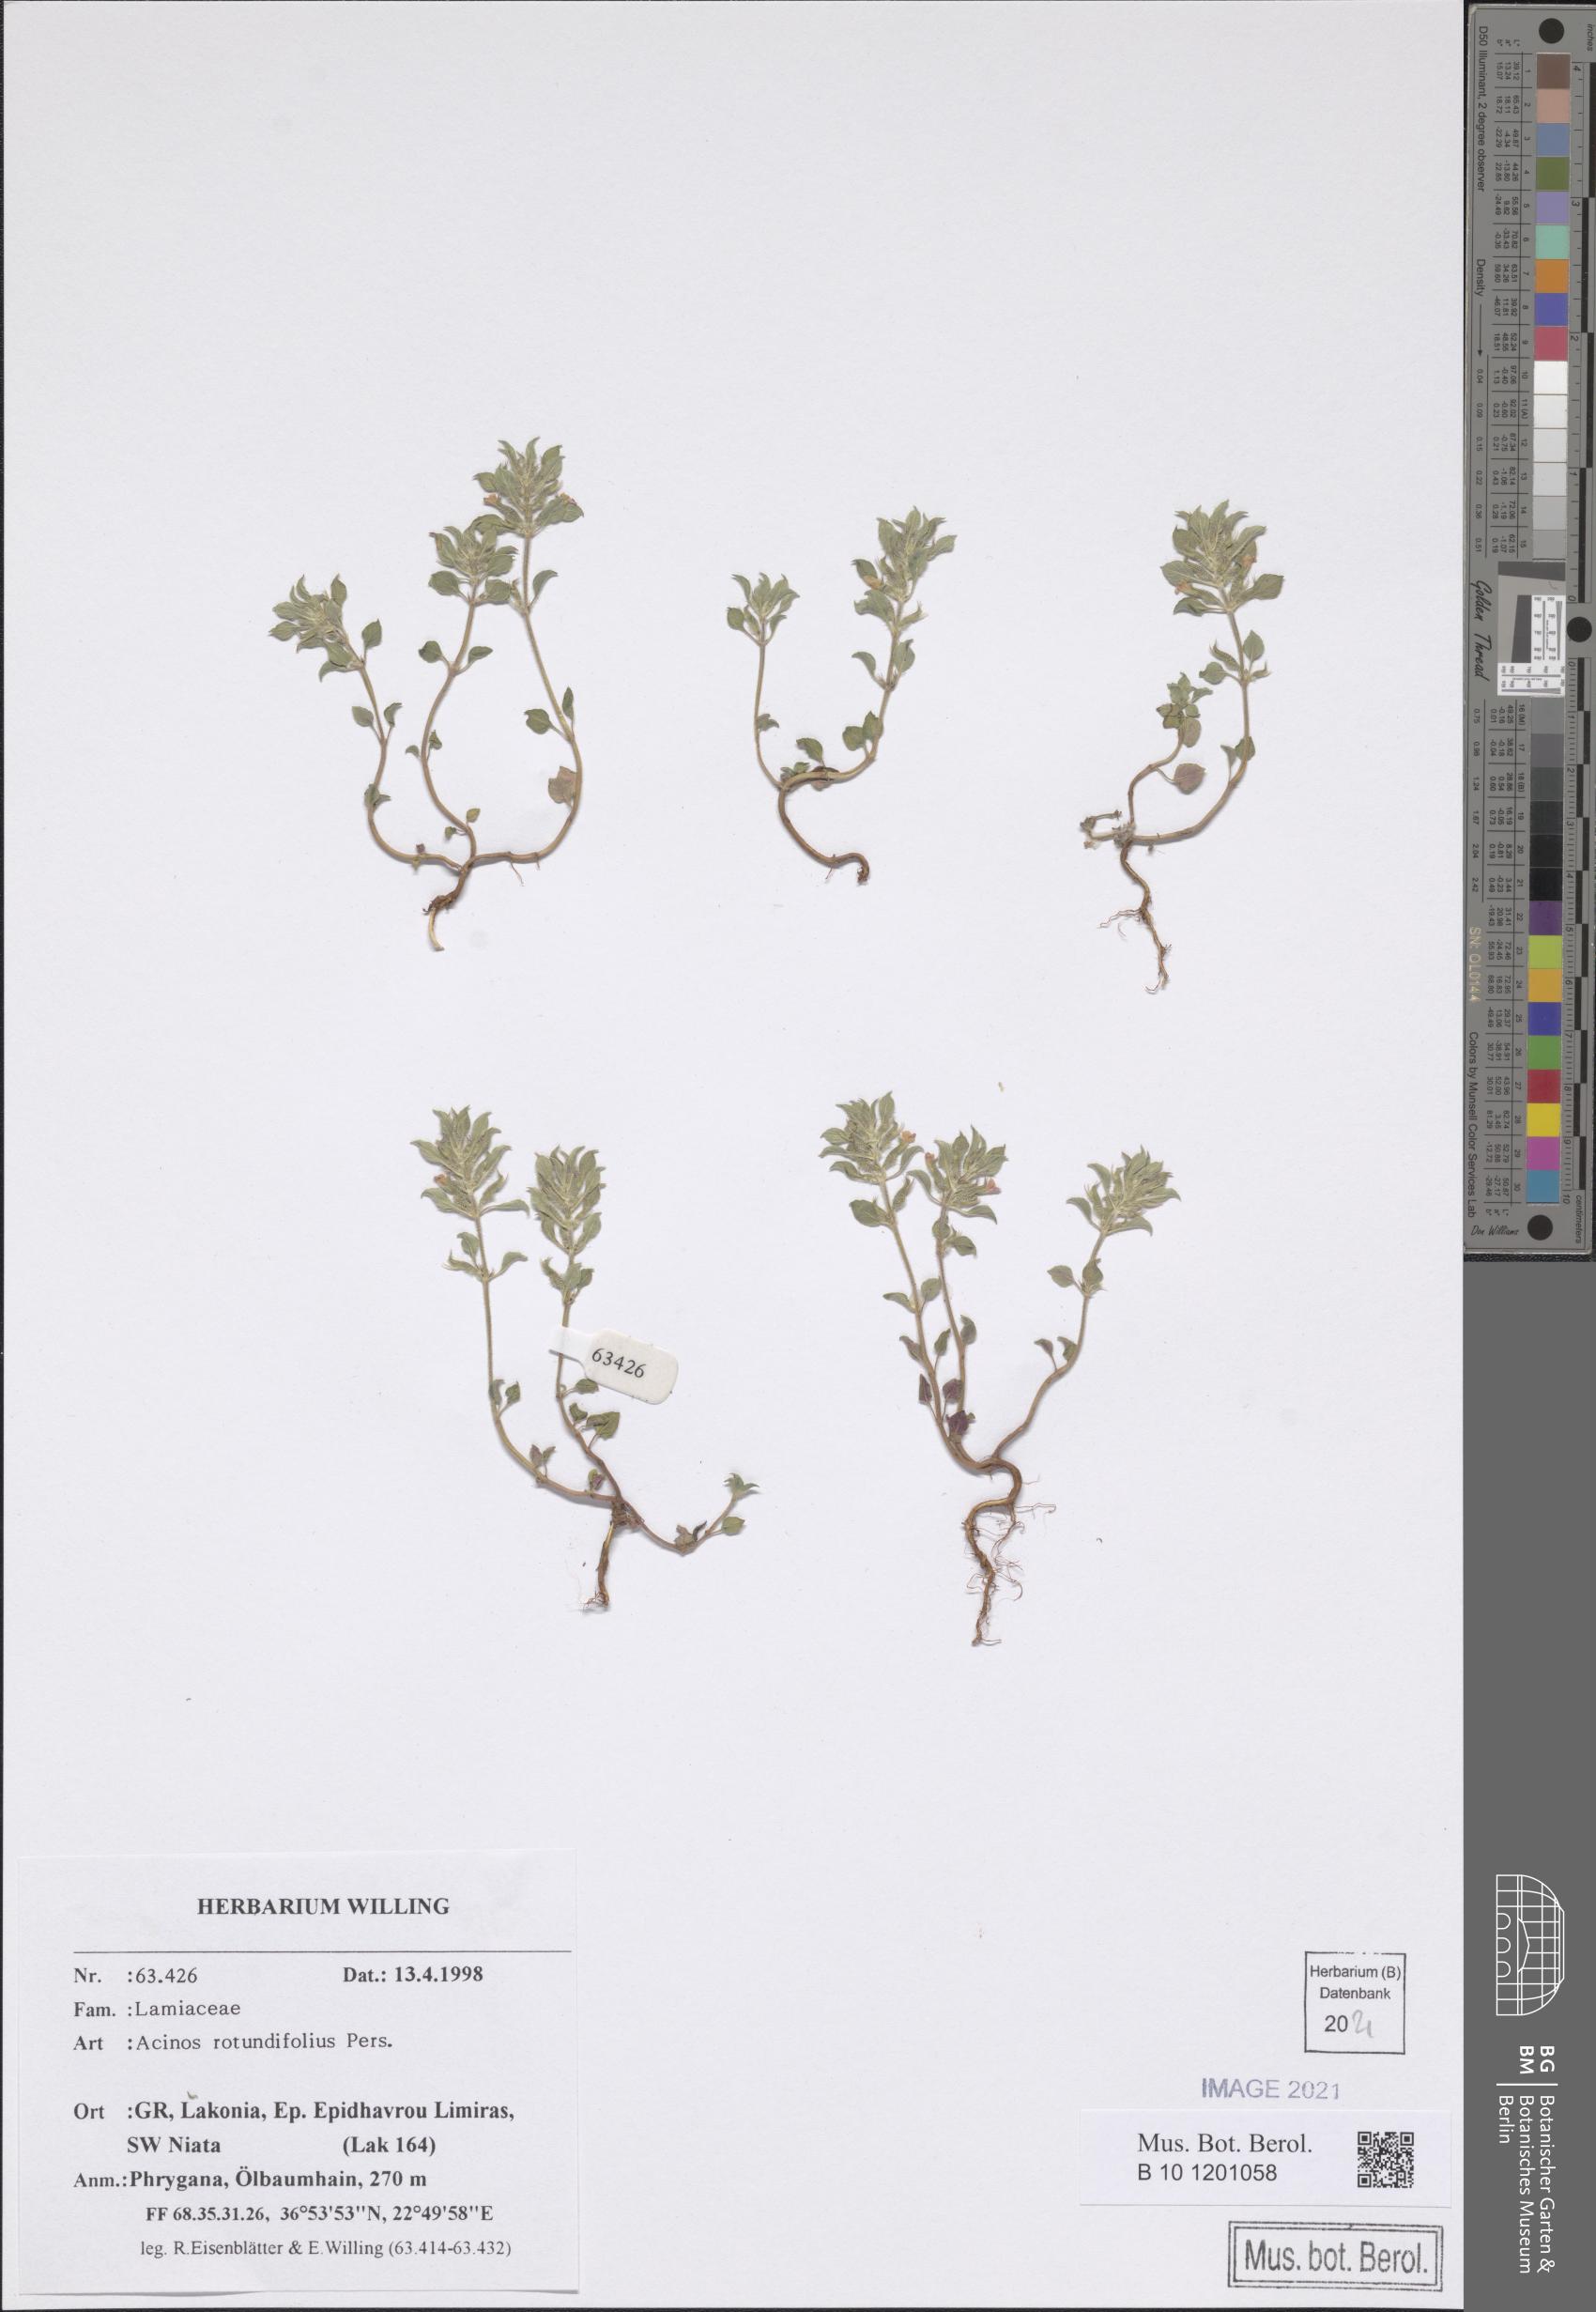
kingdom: Plantae
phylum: Tracheophyta
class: Magnoliopsida
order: Lamiales
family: Lamiaceae
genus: Clinopodium
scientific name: Clinopodium graveolens
